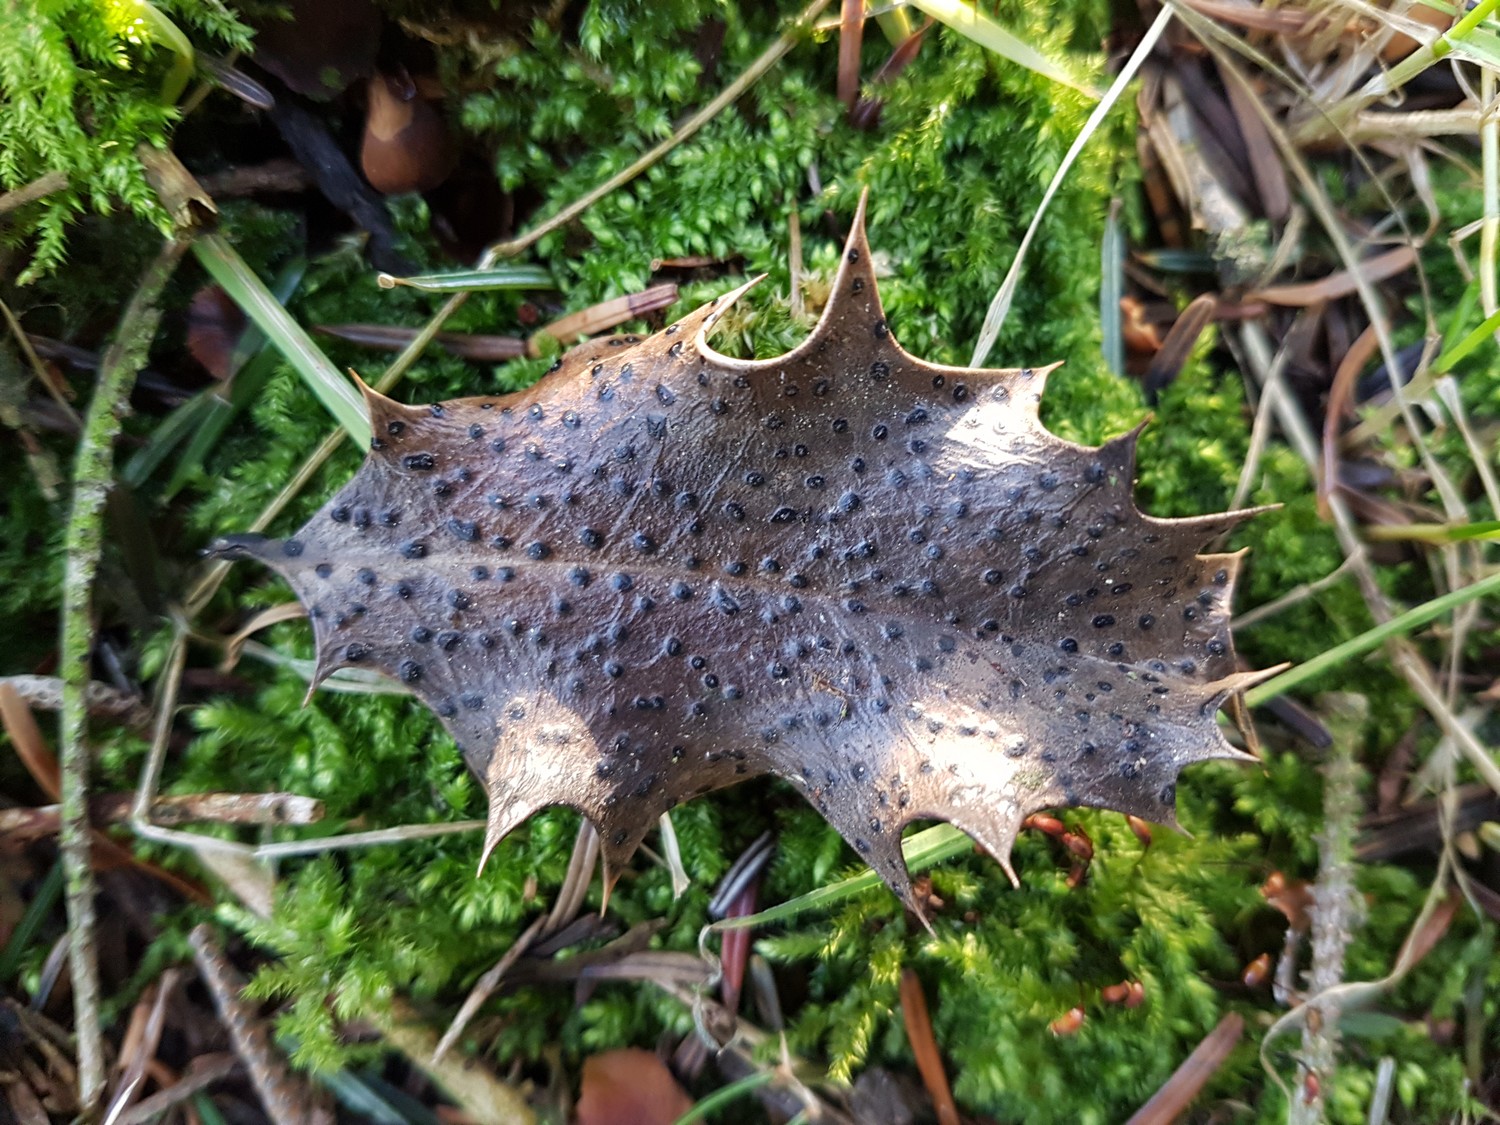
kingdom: Fungi
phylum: Ascomycota
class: Leotiomycetes
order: Phacidiales
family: Phacidiaceae
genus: Phacidium
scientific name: Phacidium lauri
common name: kristtorn-tandskive
